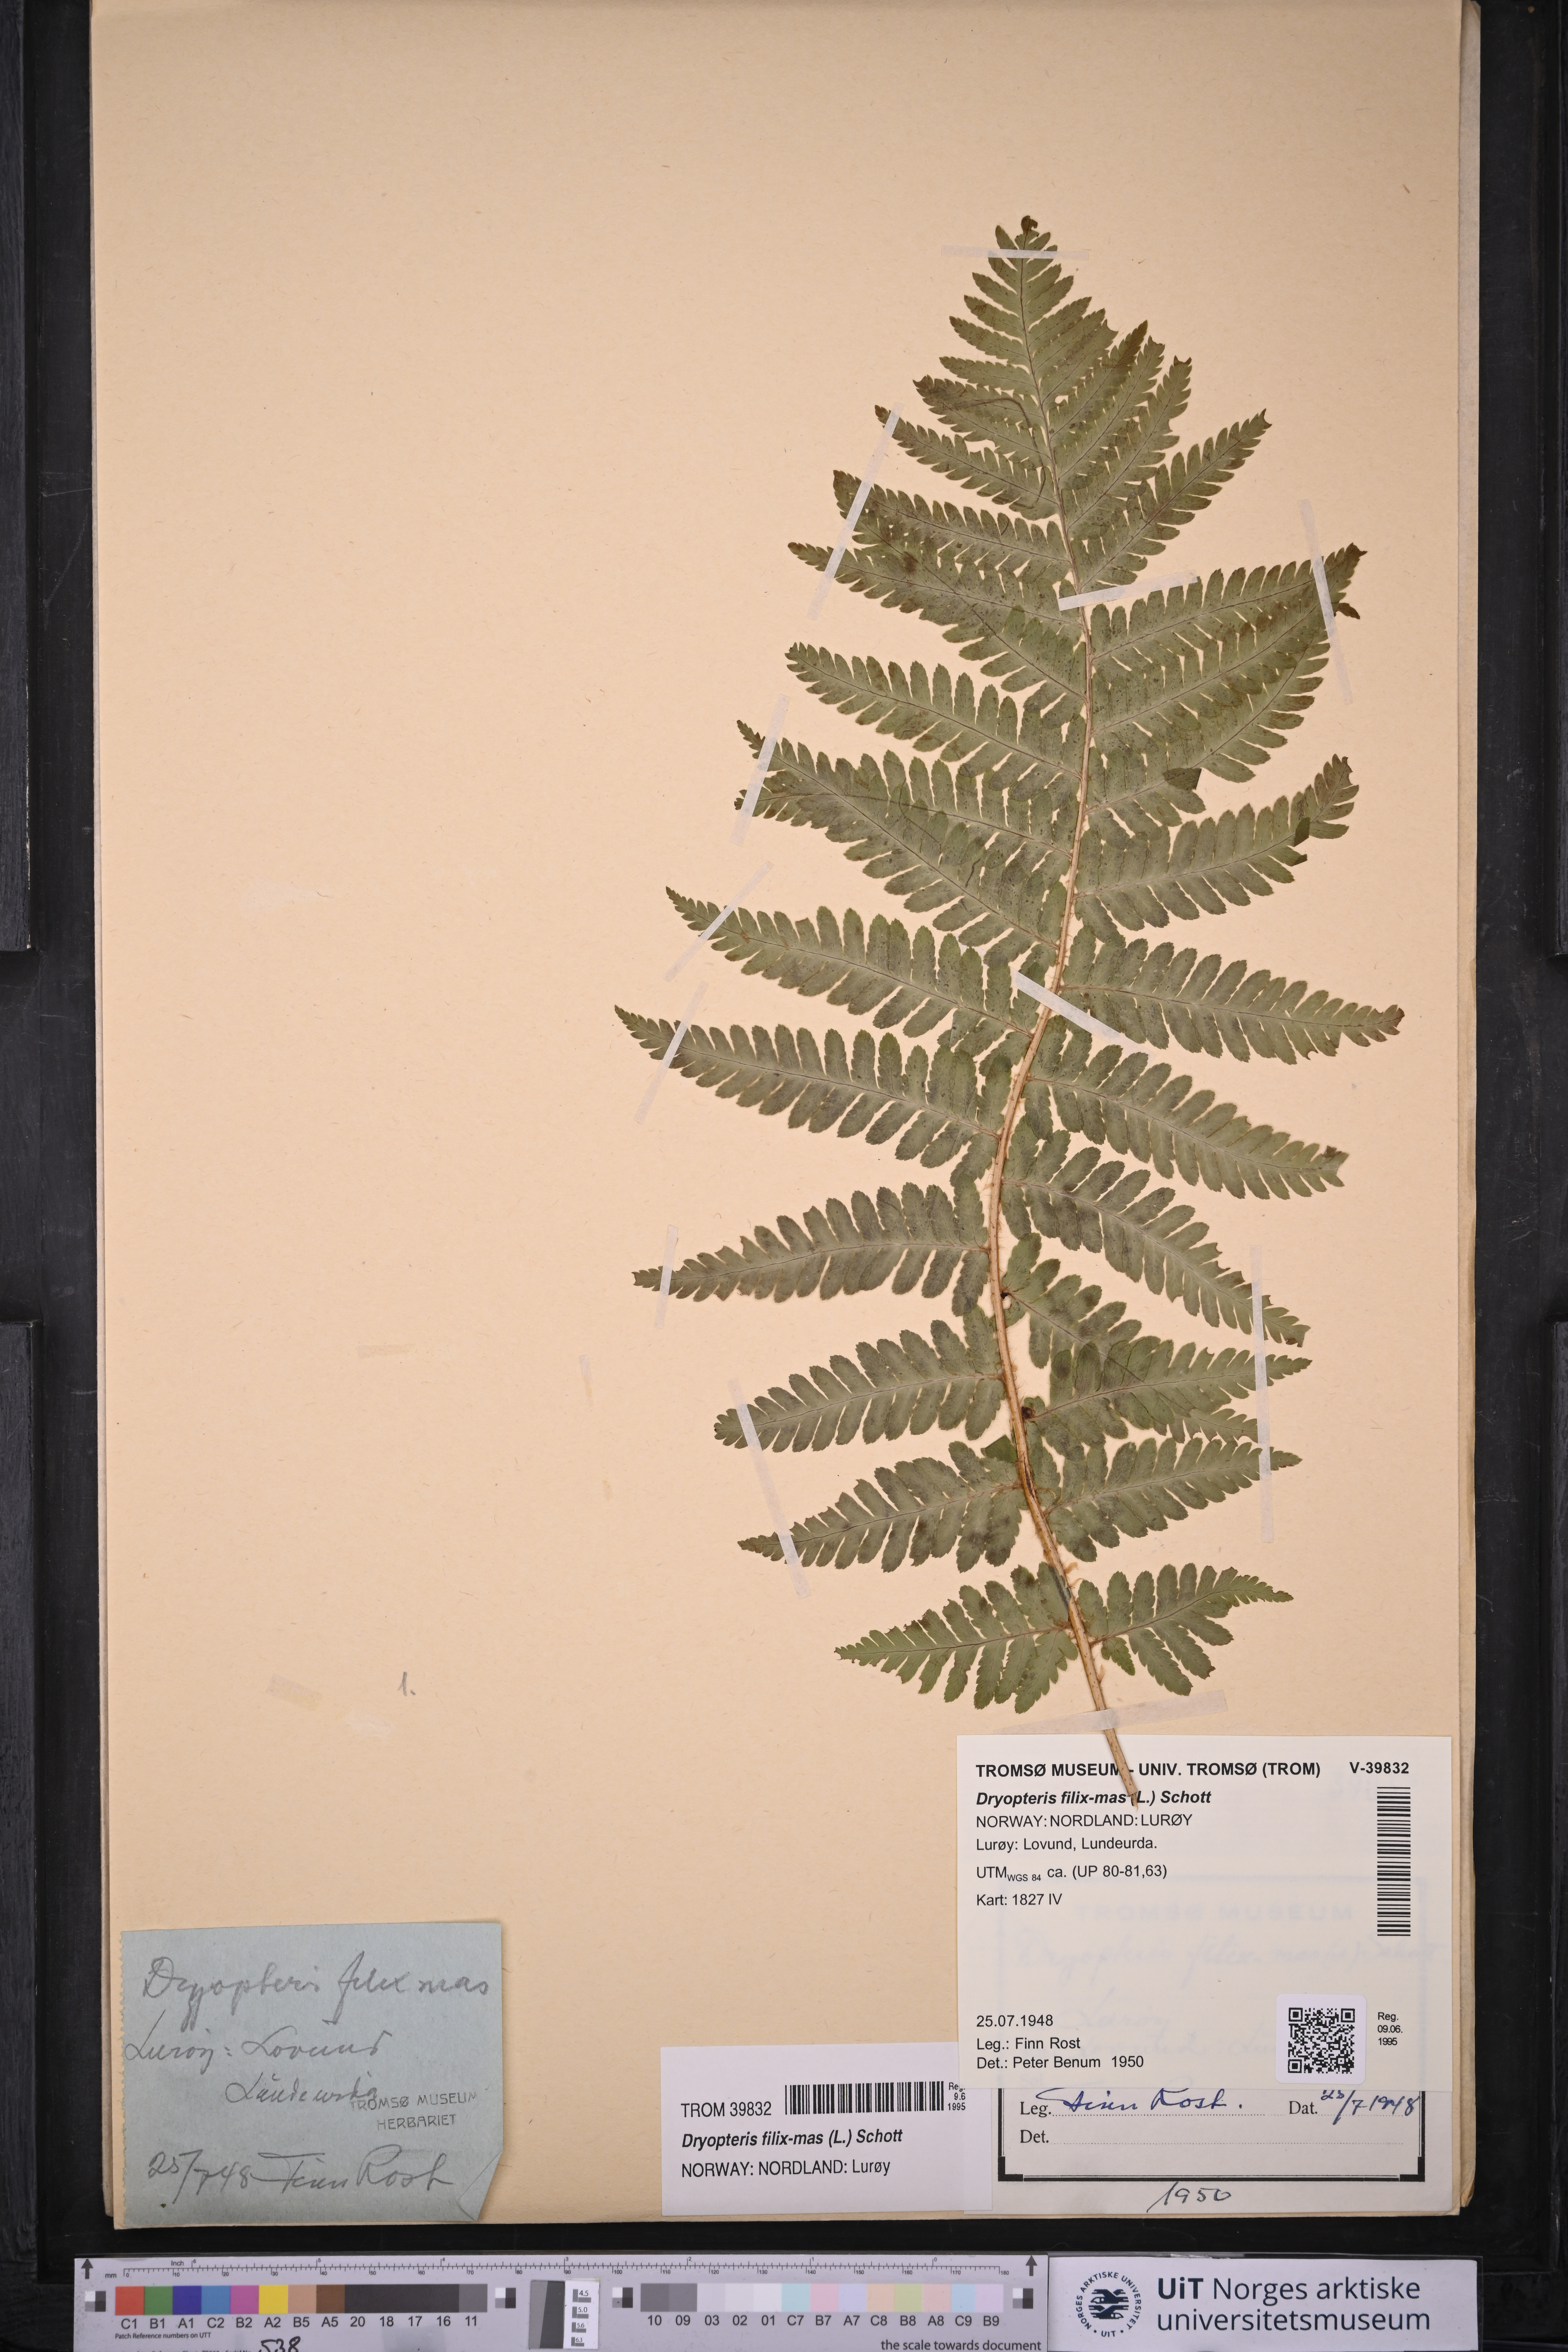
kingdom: Plantae
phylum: Tracheophyta
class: Polypodiopsida
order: Polypodiales
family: Dryopteridaceae
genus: Dryopteris
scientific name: Dryopteris filix-mas
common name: Male fern
